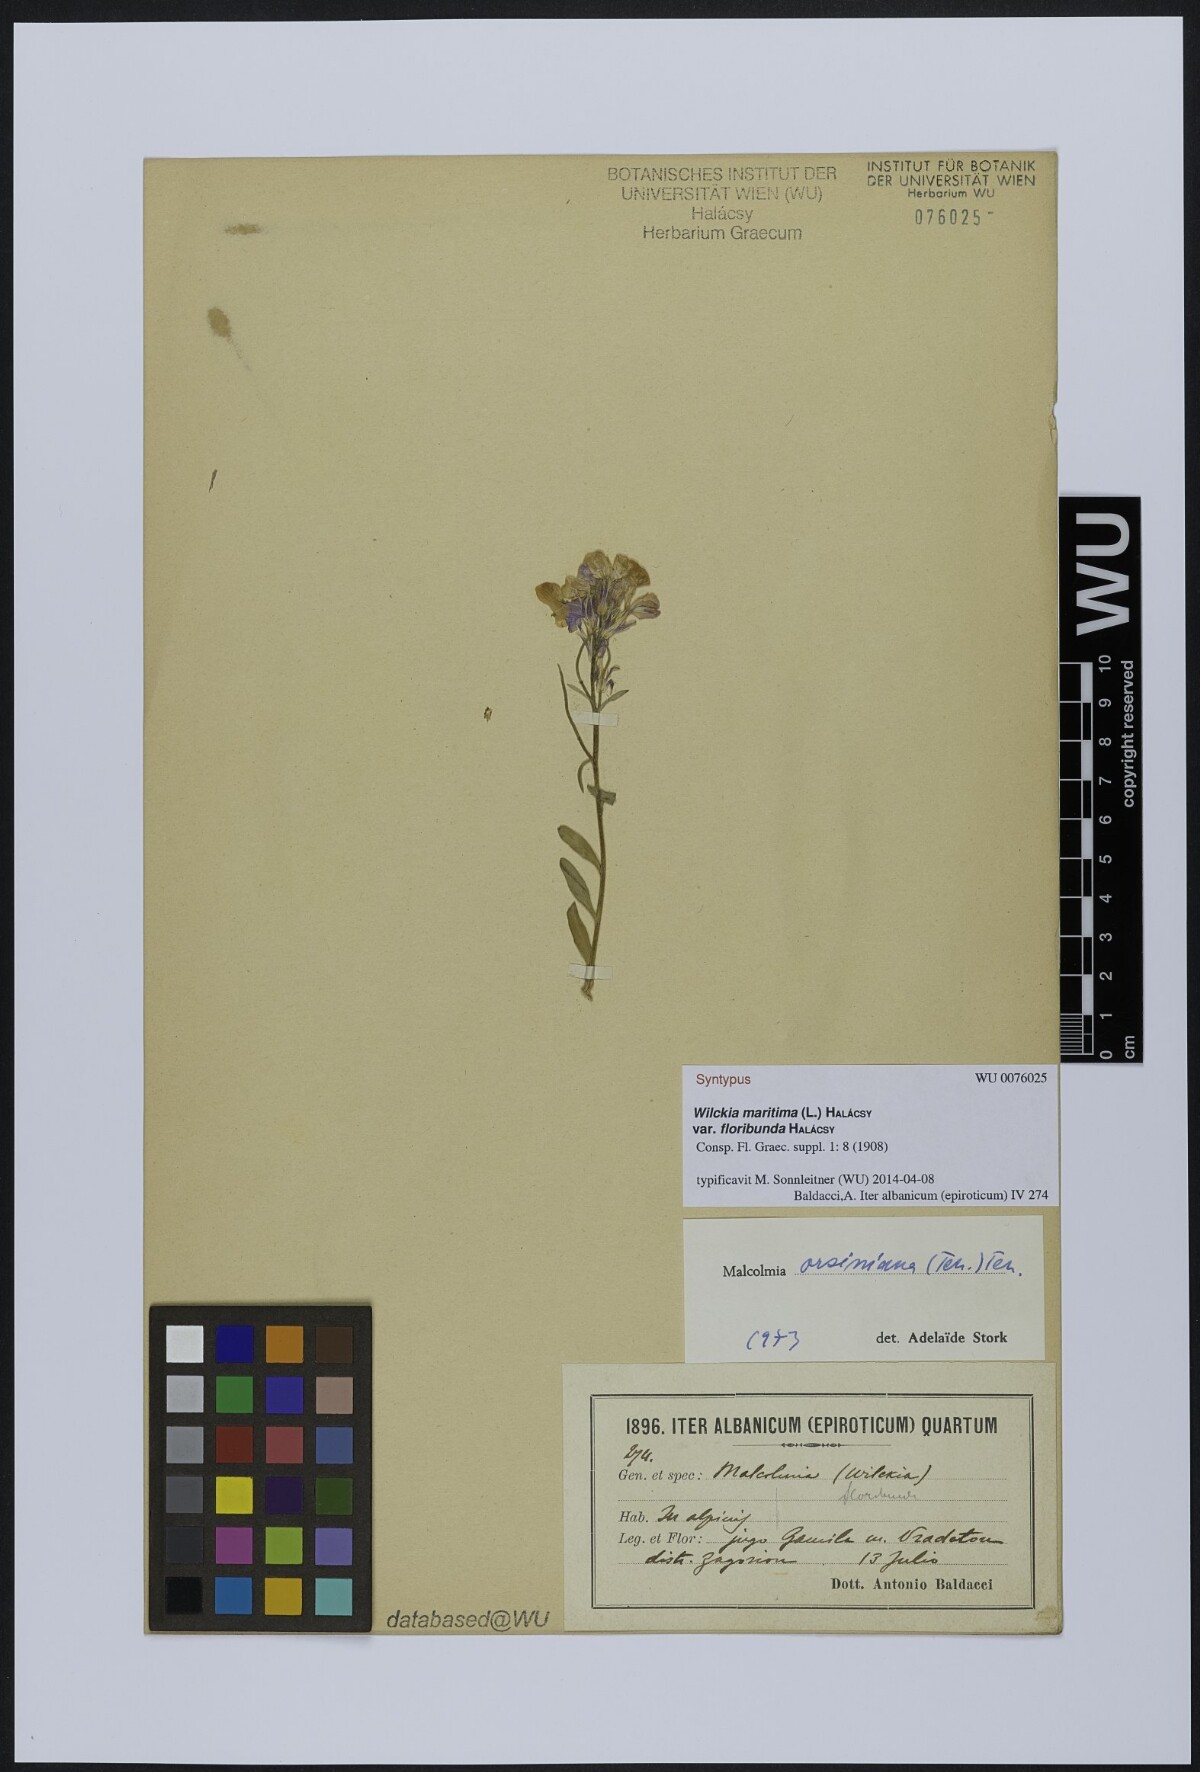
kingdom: Plantae
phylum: Tracheophyta
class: Magnoliopsida
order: Brassicales
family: Brassicaceae
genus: Malcolmia
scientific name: Malcolmia orsiniana
